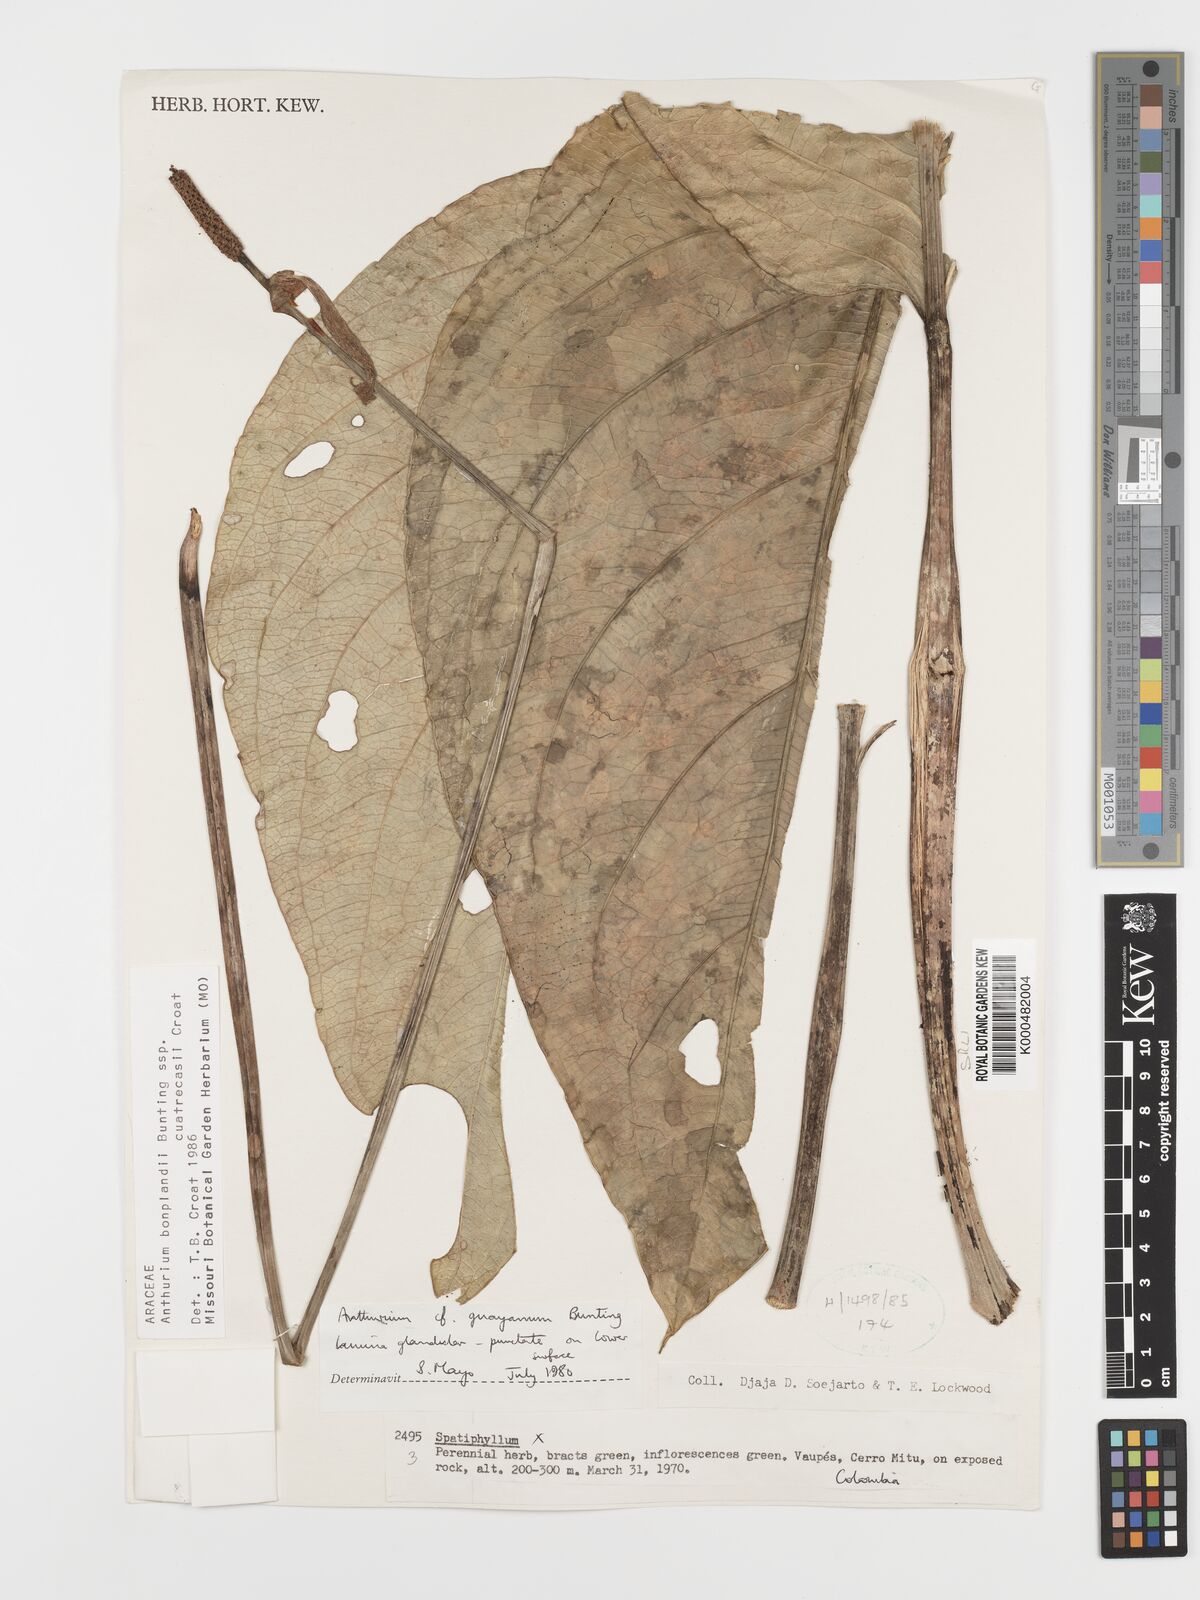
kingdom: Plantae
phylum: Tracheophyta
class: Liliopsida
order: Alismatales
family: Araceae
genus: Anthurium
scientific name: Anthurium
